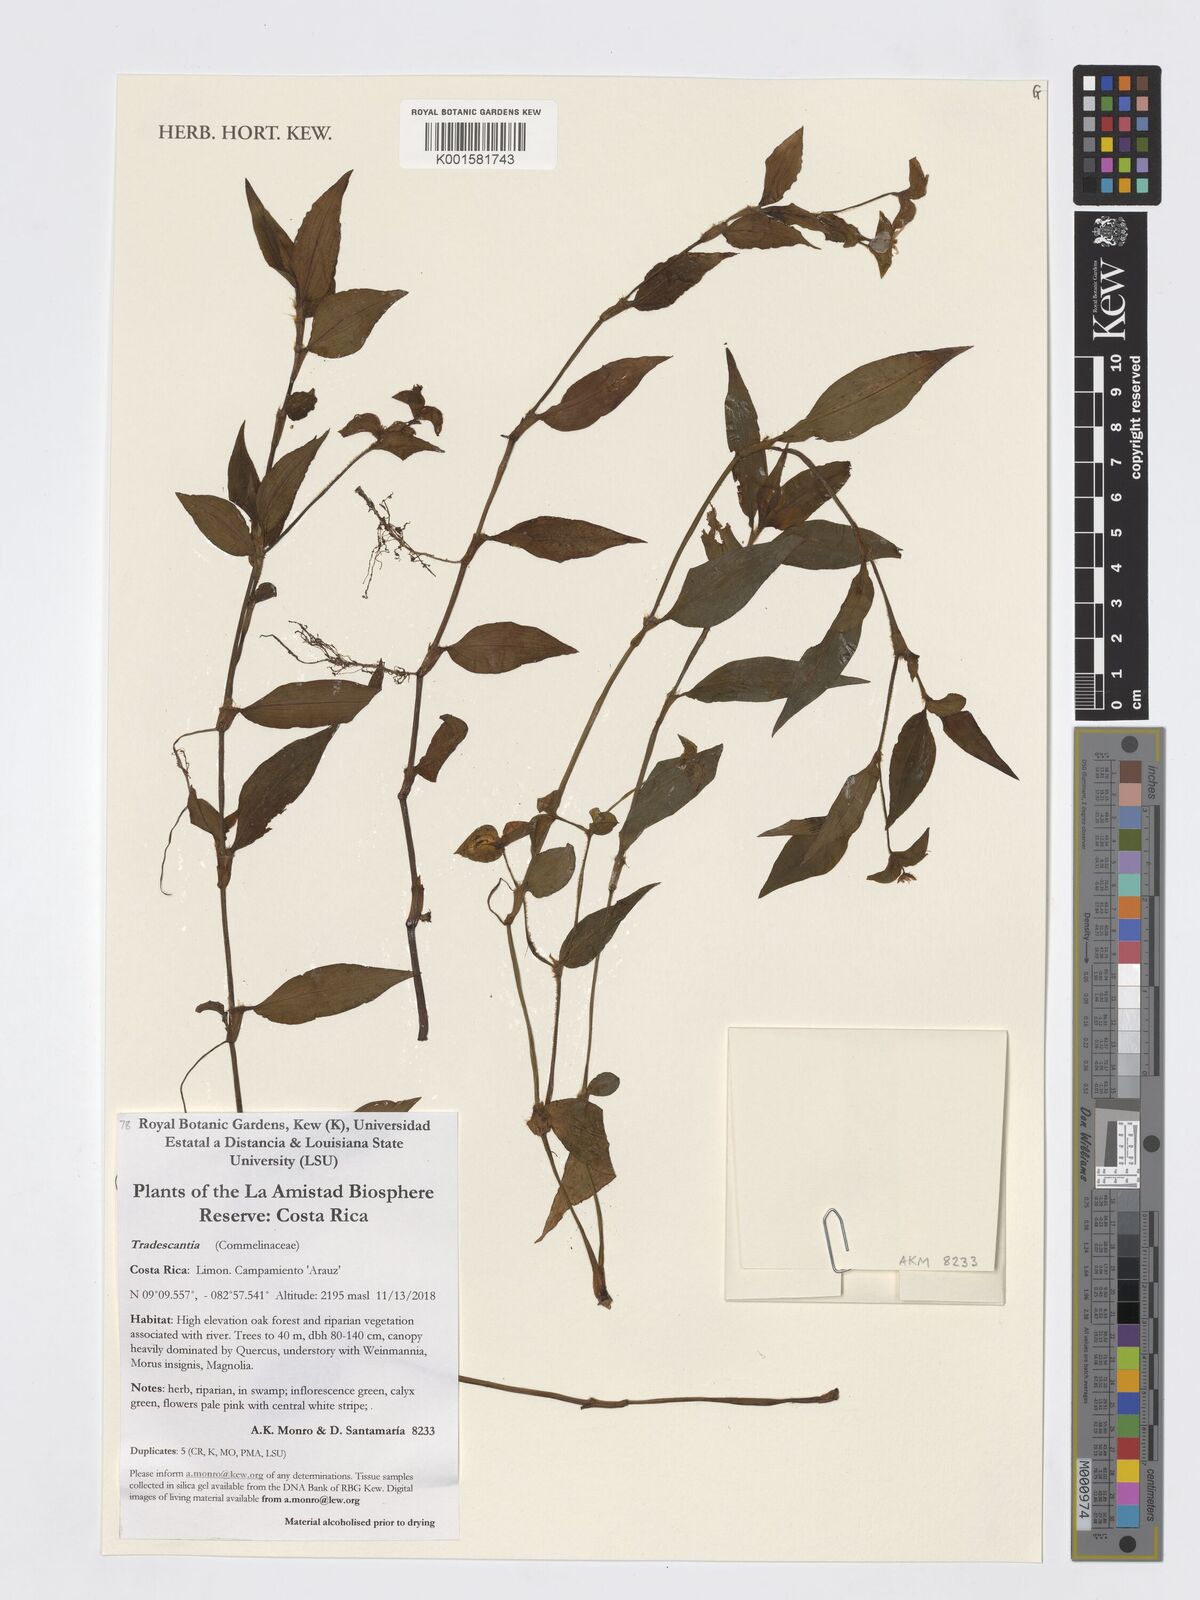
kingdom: Plantae
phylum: Tracheophyta
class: Liliopsida
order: Commelinales
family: Commelinaceae
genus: Tradescantia
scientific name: Tradescantia
